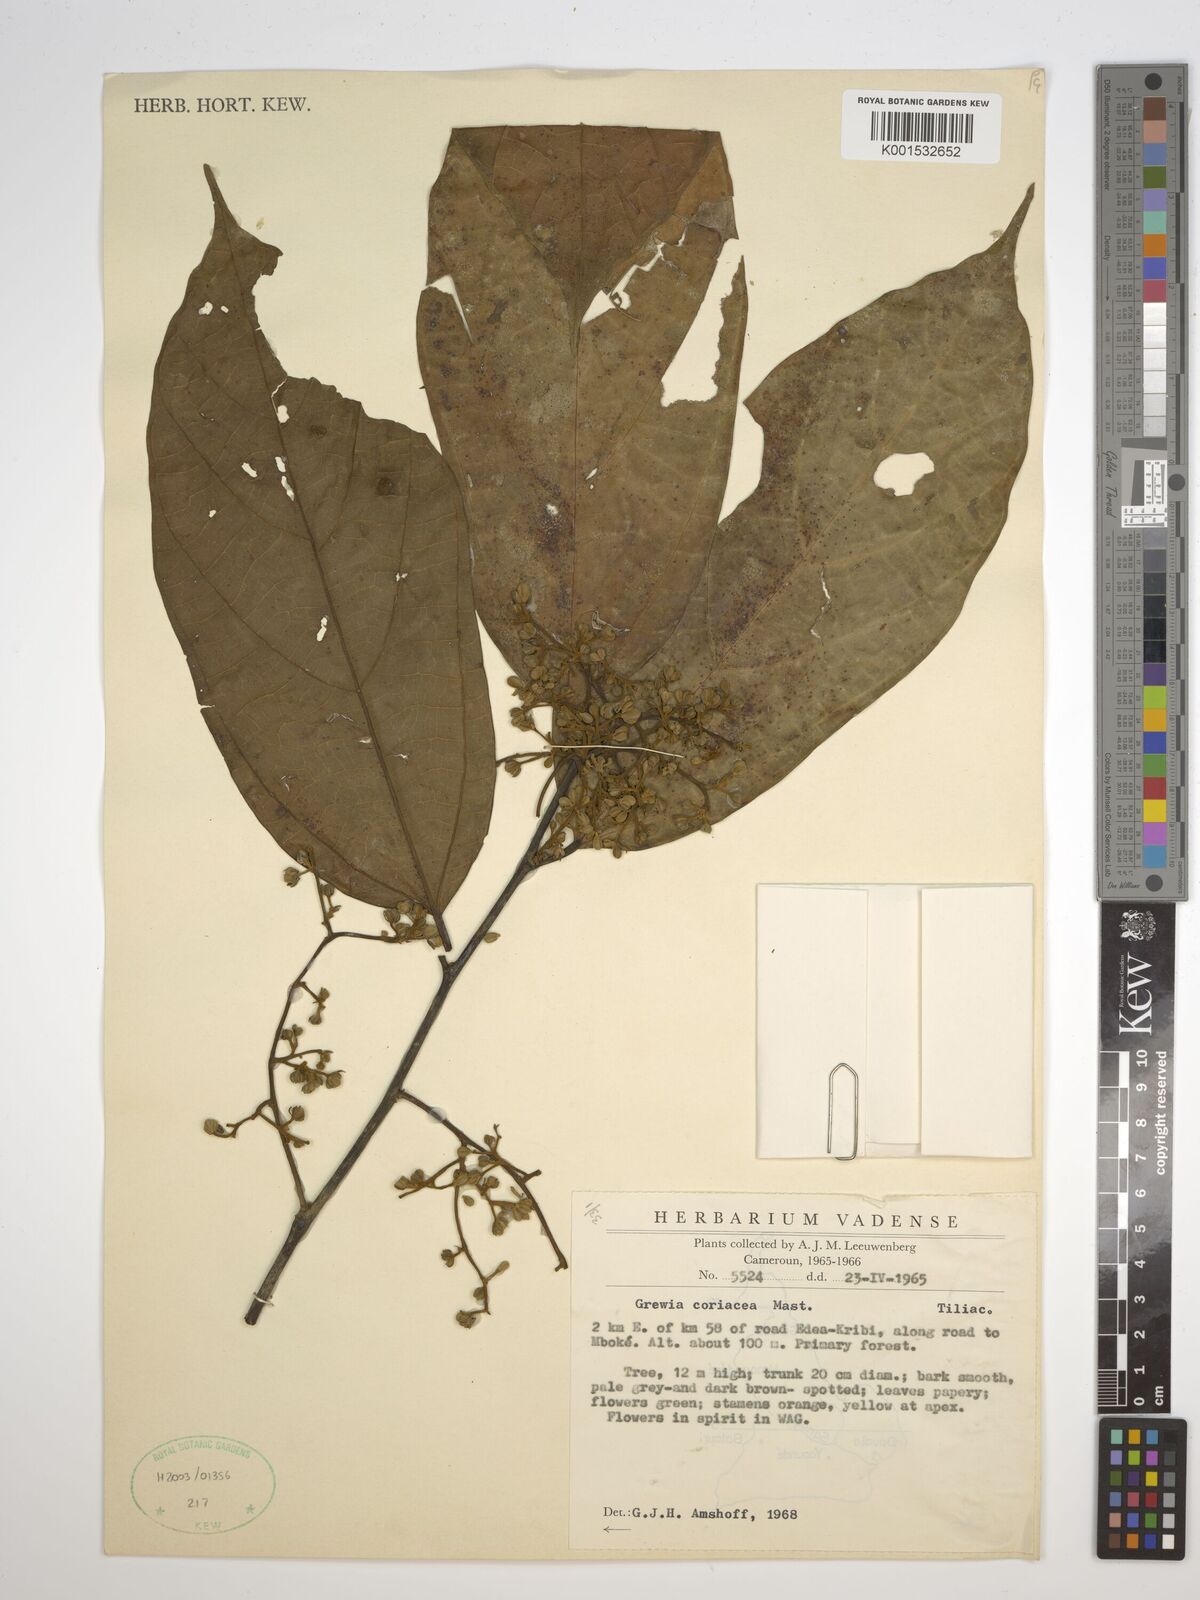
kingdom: Plantae
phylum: Tracheophyta
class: Magnoliopsida
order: Malvales
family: Malvaceae
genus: Microcos
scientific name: Microcos coriacea
